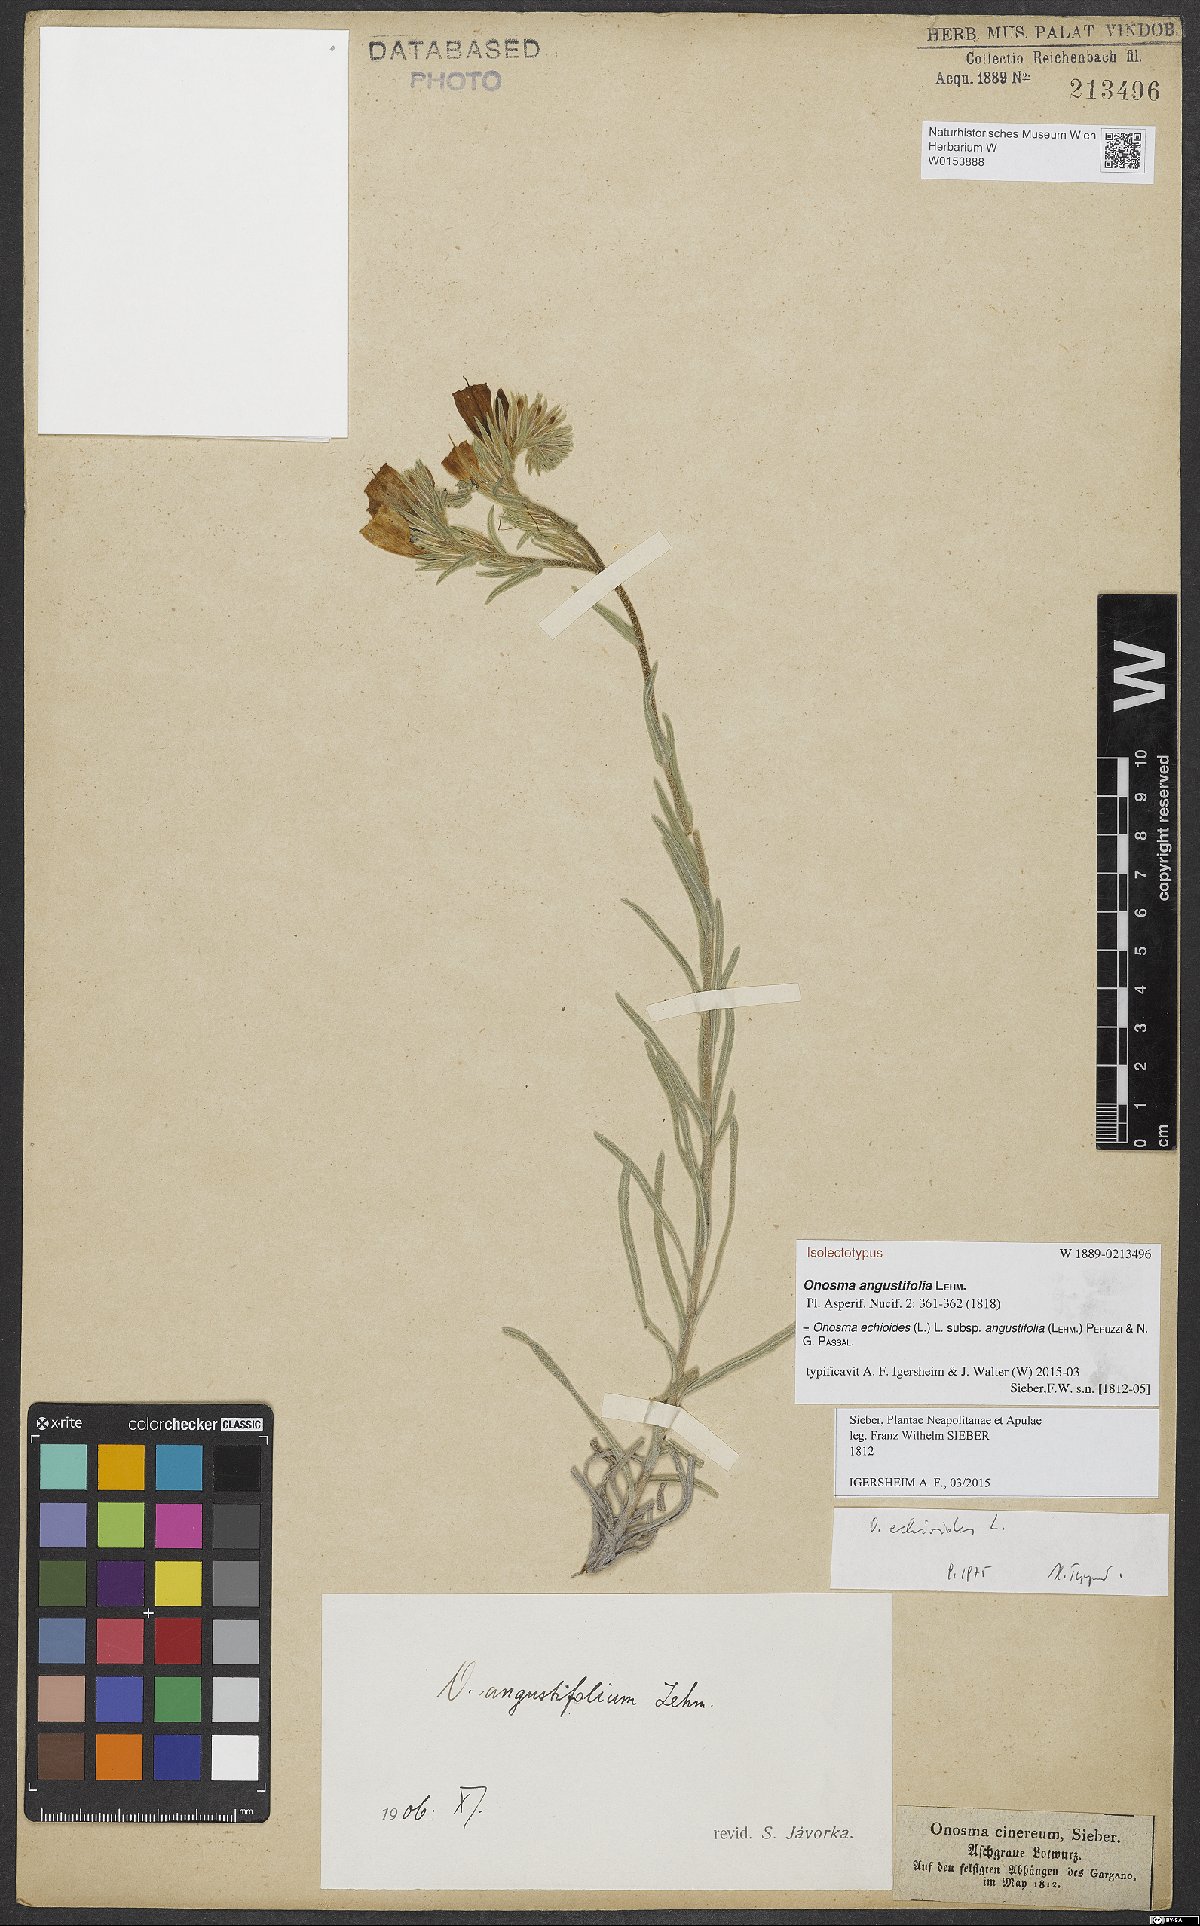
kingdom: Plantae
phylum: Tracheophyta
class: Magnoliopsida
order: Boraginales
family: Boraginaceae
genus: Onosma
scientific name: Onosma echioides
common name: Goldendrop
